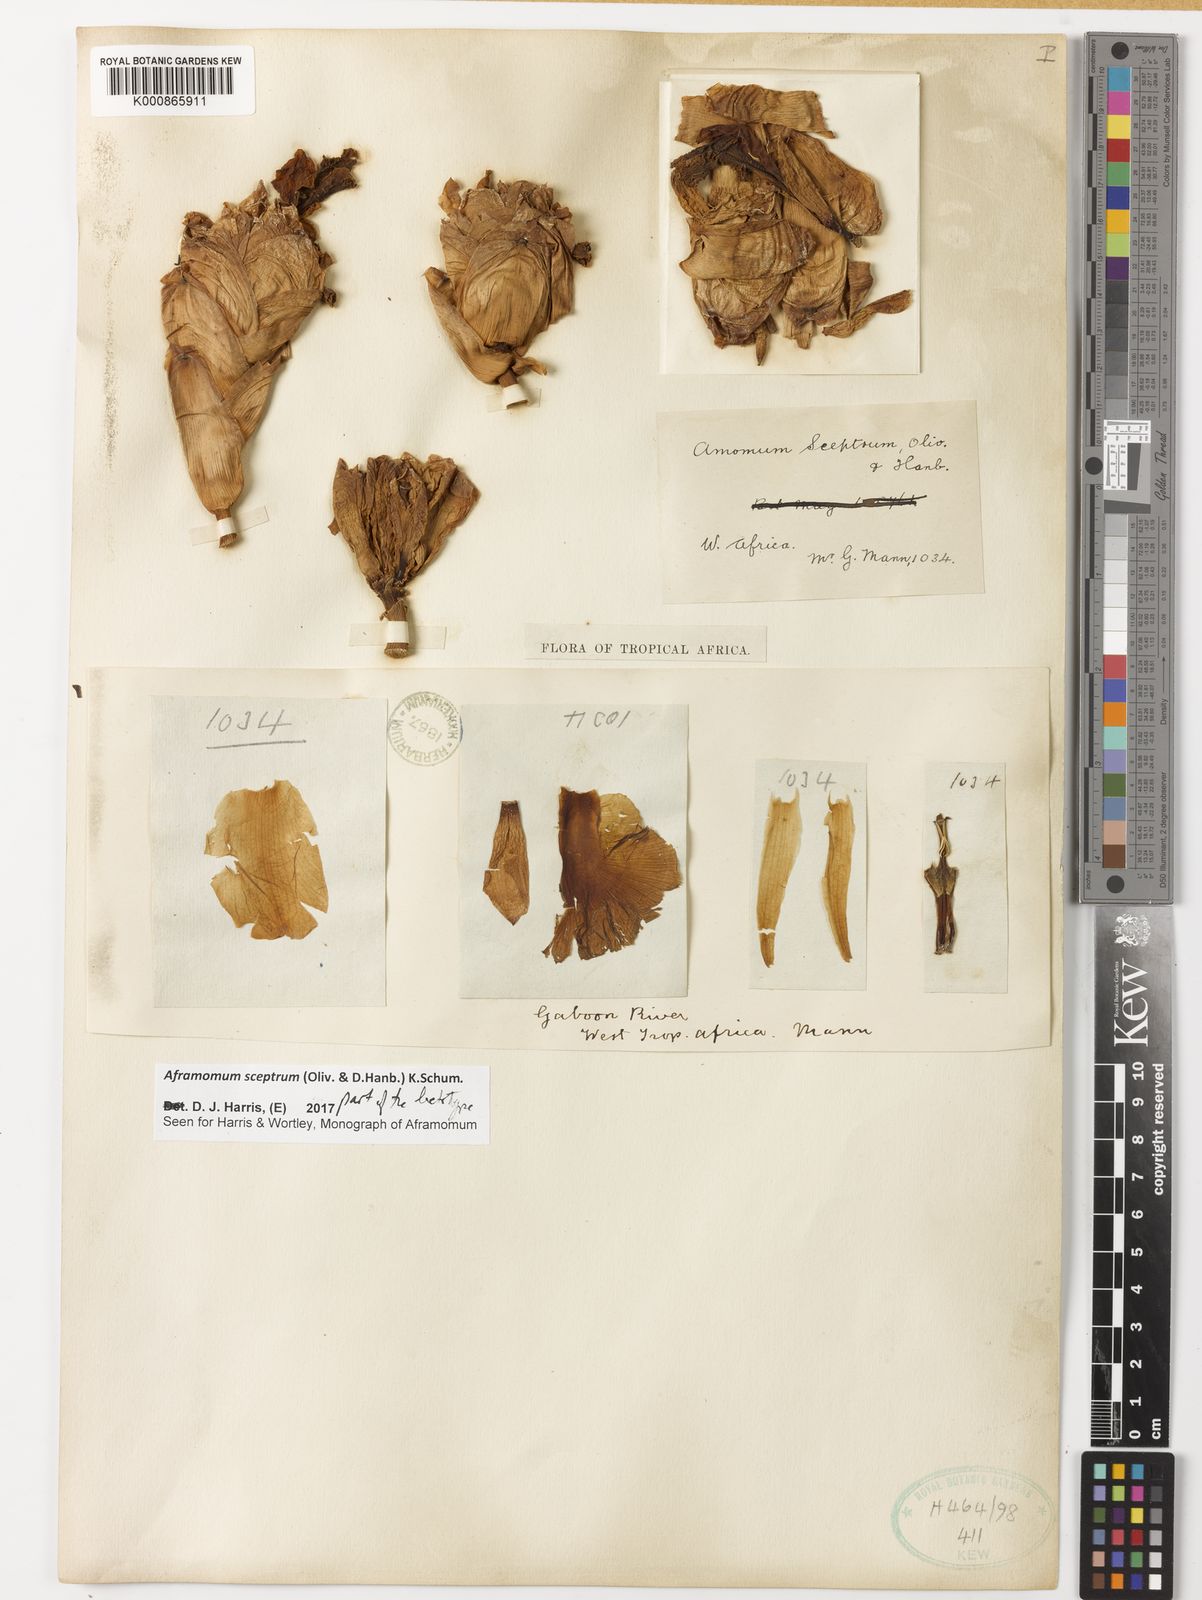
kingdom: Plantae
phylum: Tracheophyta
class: Liliopsida
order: Zingiberales
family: Zingiberaceae
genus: Aframomum
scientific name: Aframomum cereum
